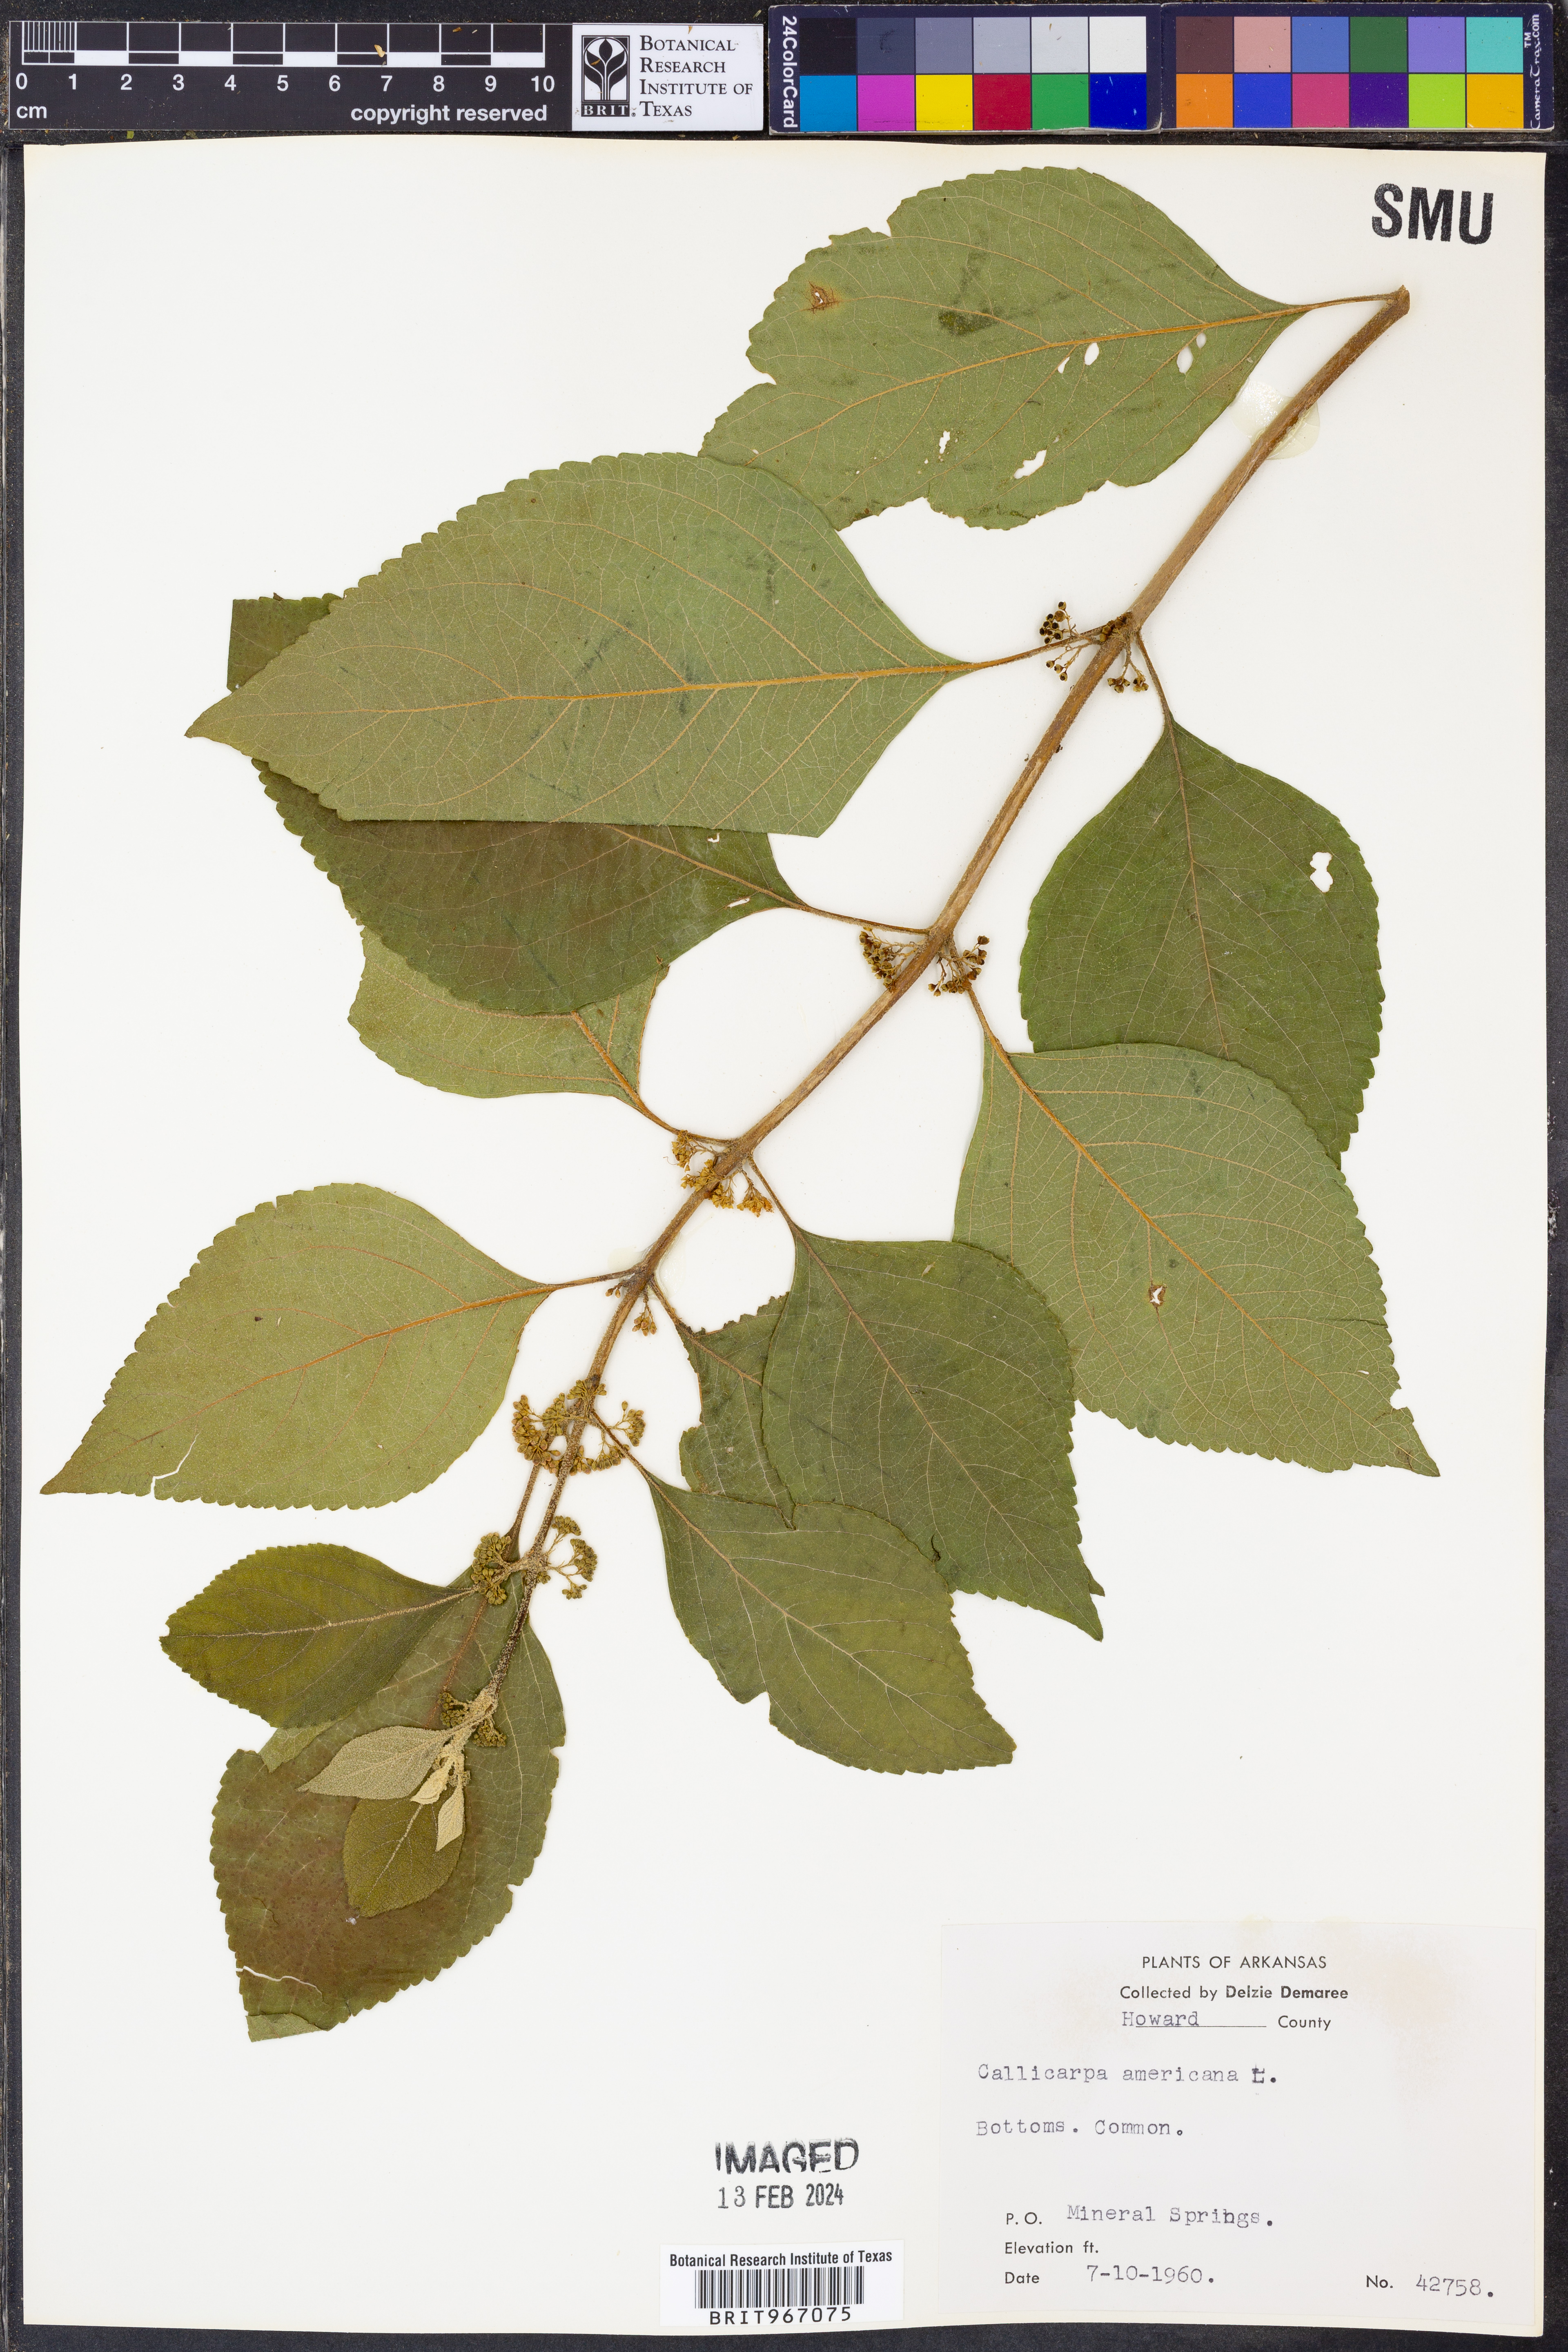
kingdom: Plantae
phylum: Tracheophyta
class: Magnoliopsida
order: Lamiales
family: Lamiaceae
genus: Callicarpa
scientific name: Callicarpa americana
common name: American beautyberry
